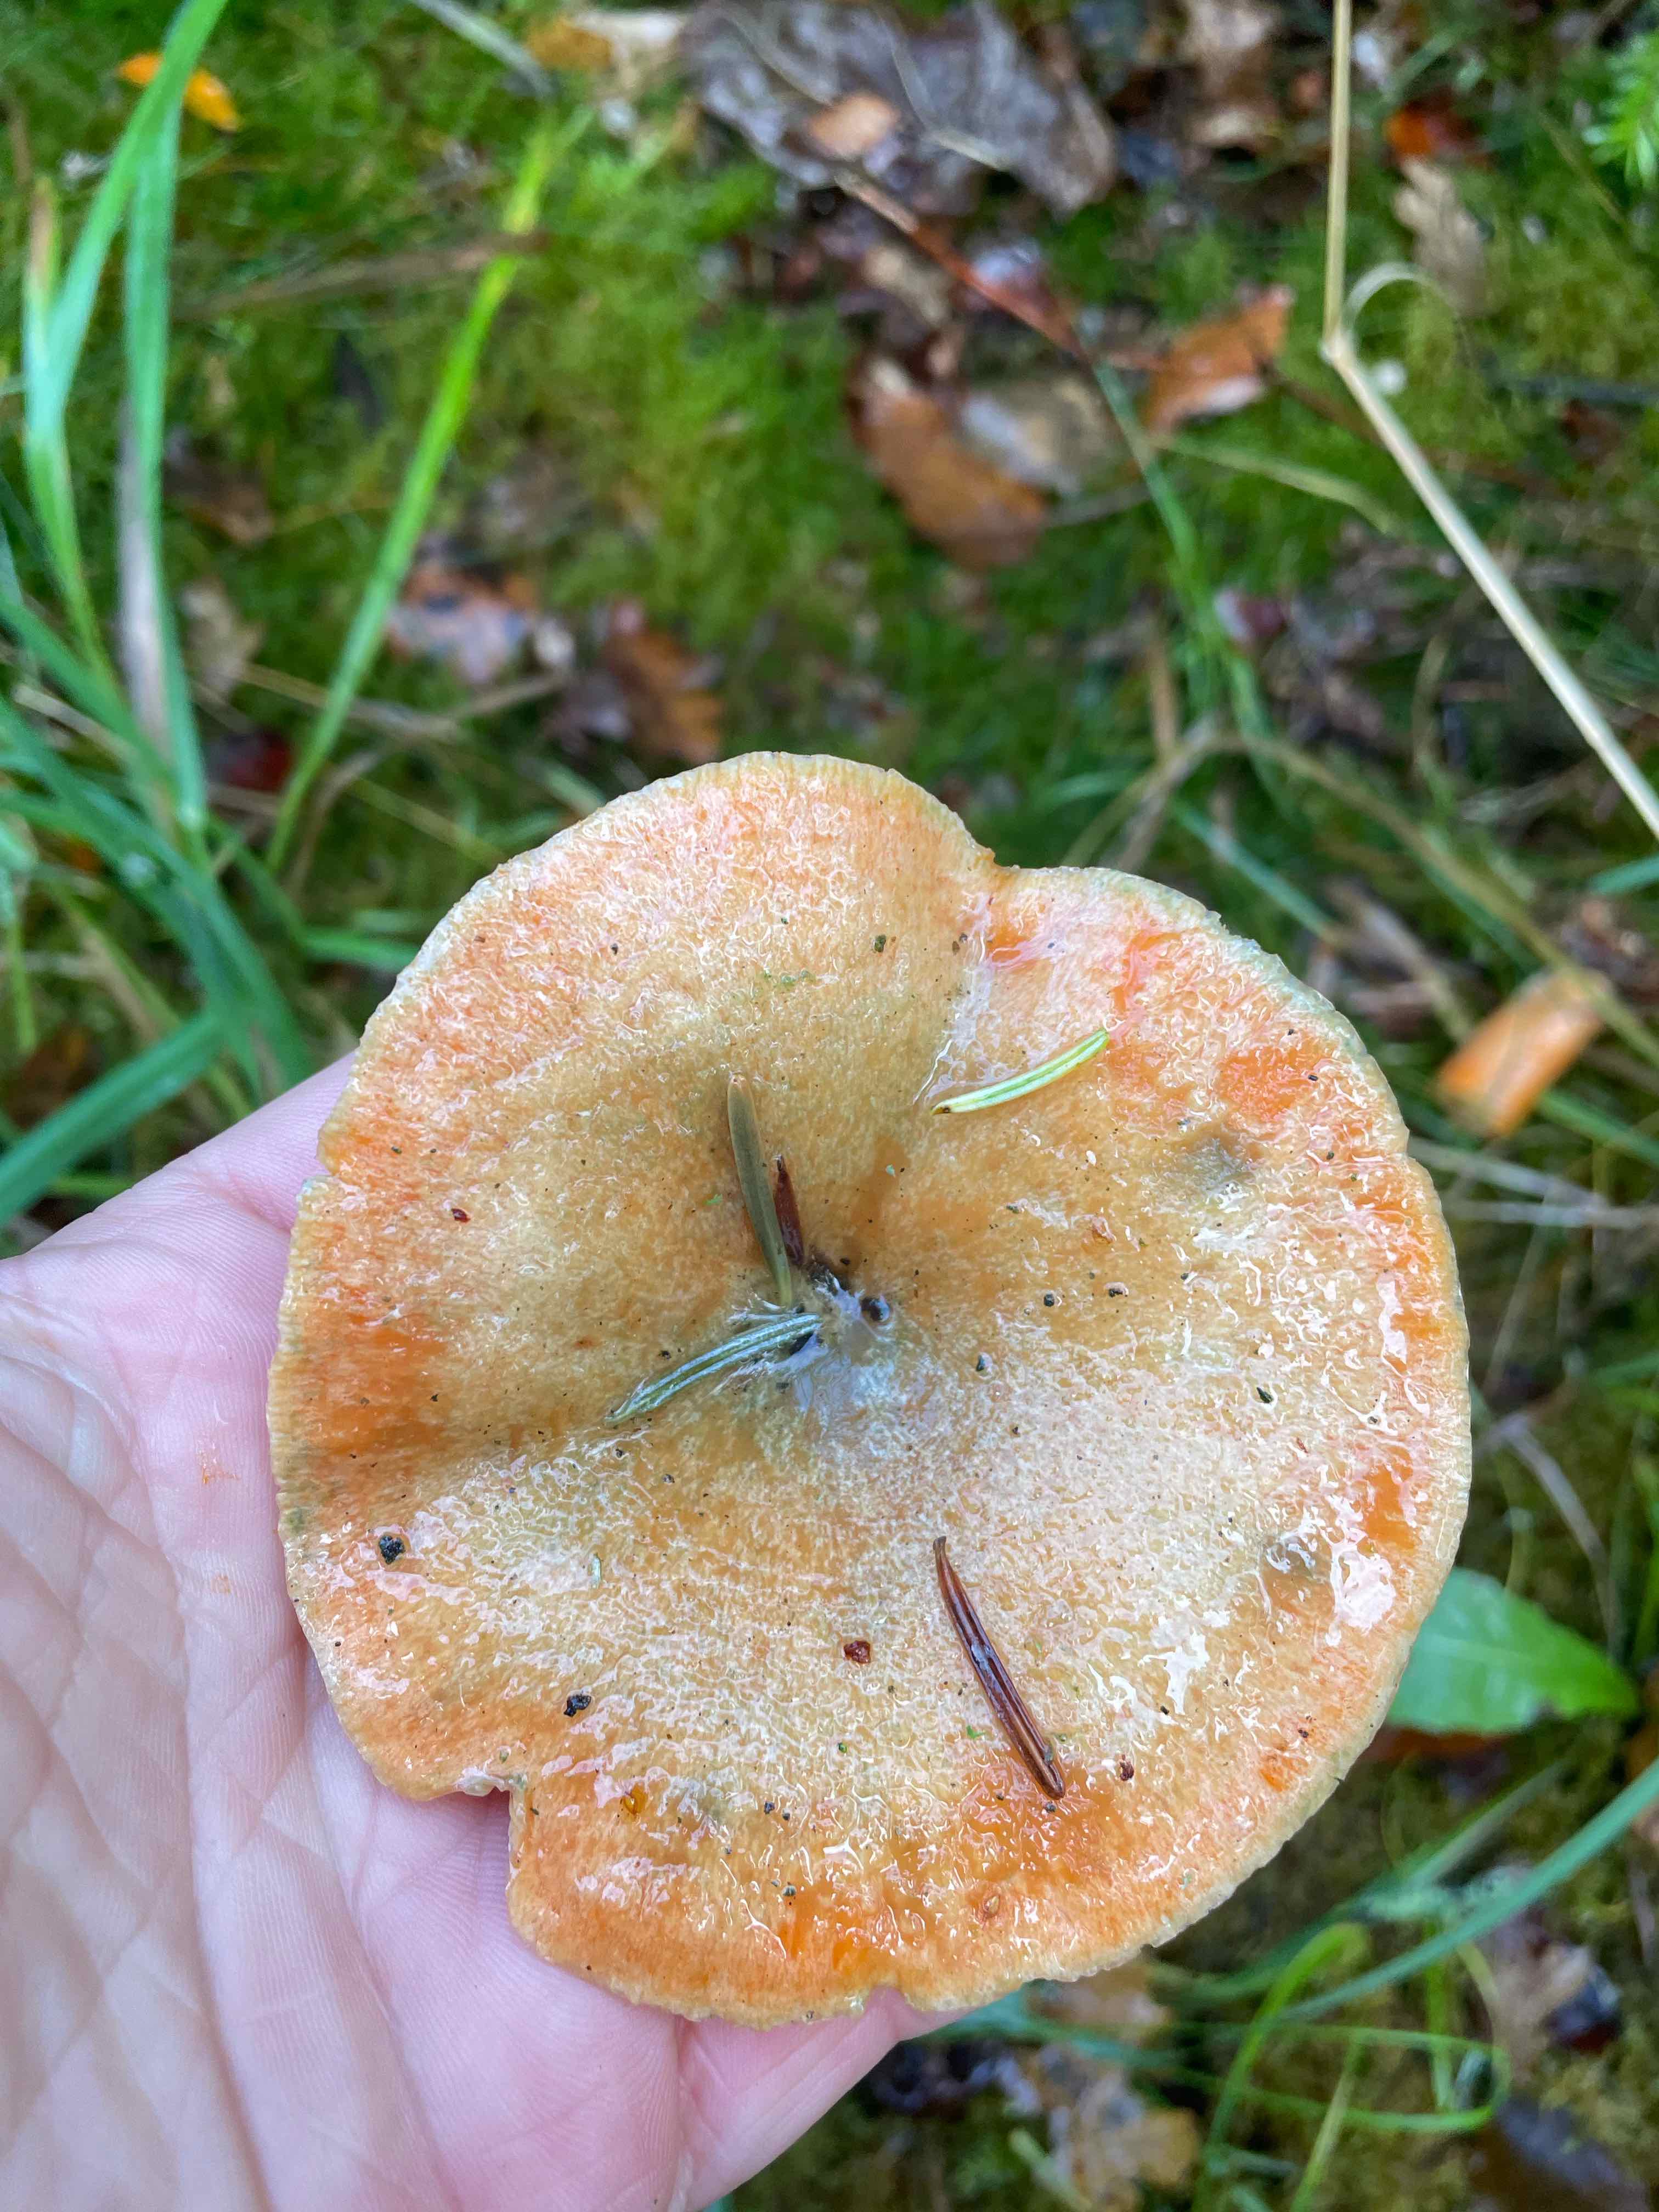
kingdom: Fungi
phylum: Basidiomycota
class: Agaricomycetes
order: Russulales
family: Russulaceae
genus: Lactarius
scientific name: Lactarius deterrimus
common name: gran-mælkehat
